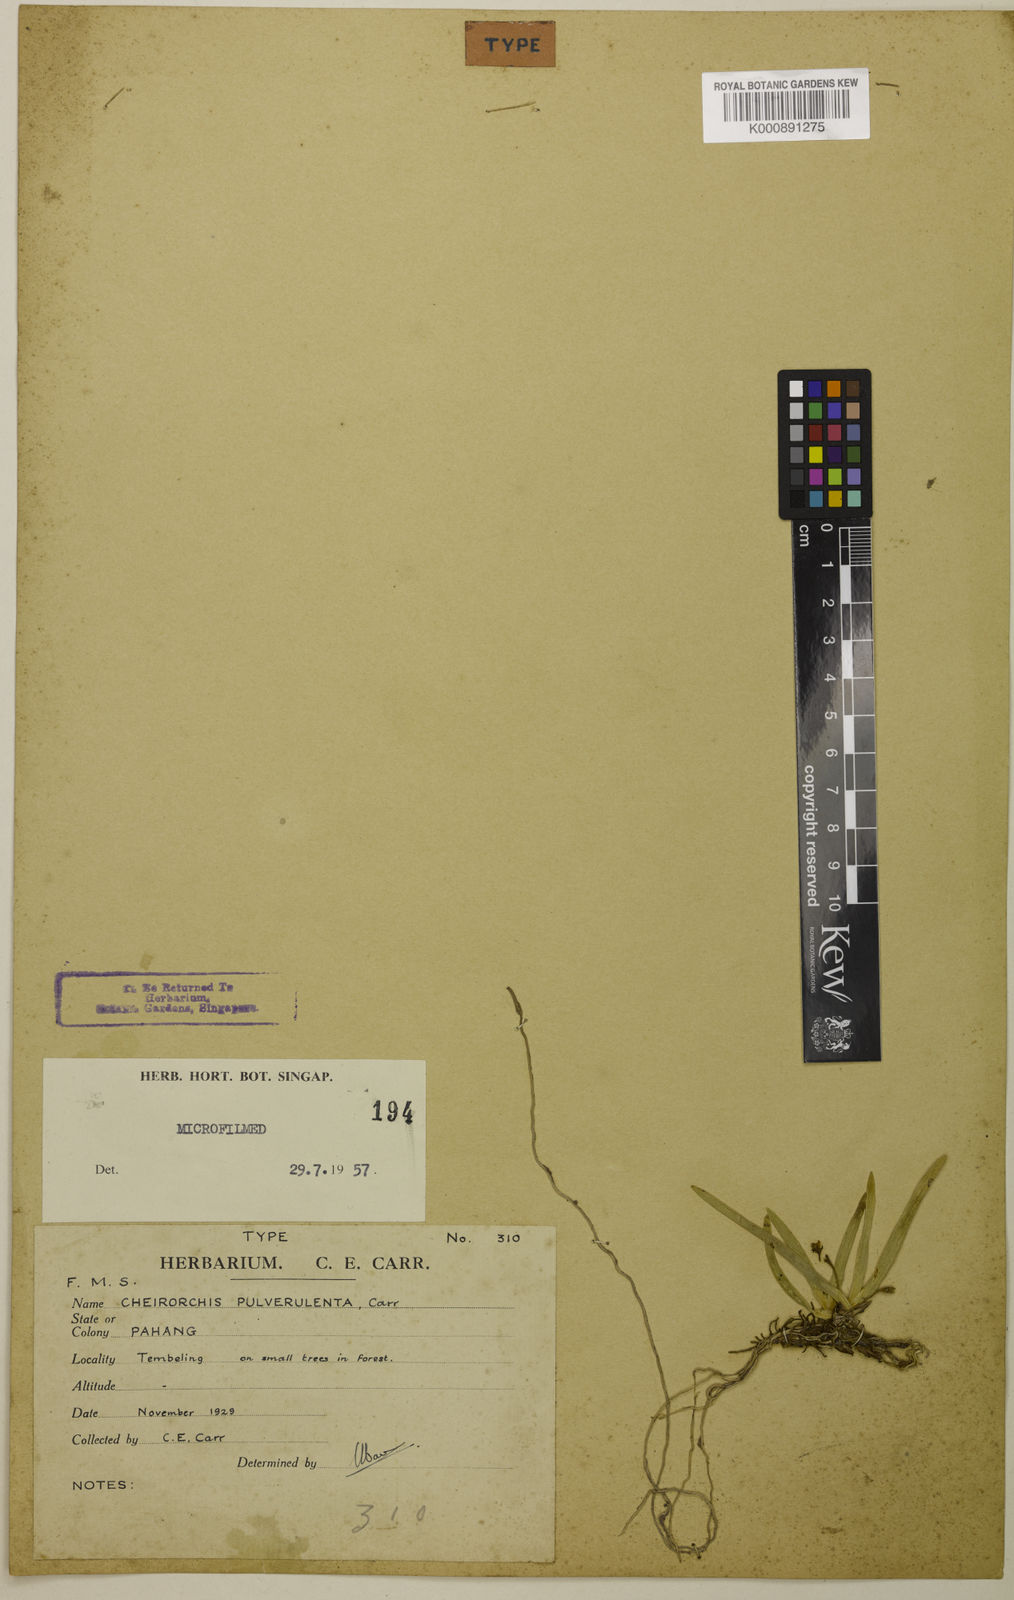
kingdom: Plantae
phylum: Tracheophyta
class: Liliopsida
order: Asparagales
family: Orchidaceae
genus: Thrixspermum
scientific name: Thrixspermum pulverulentum
